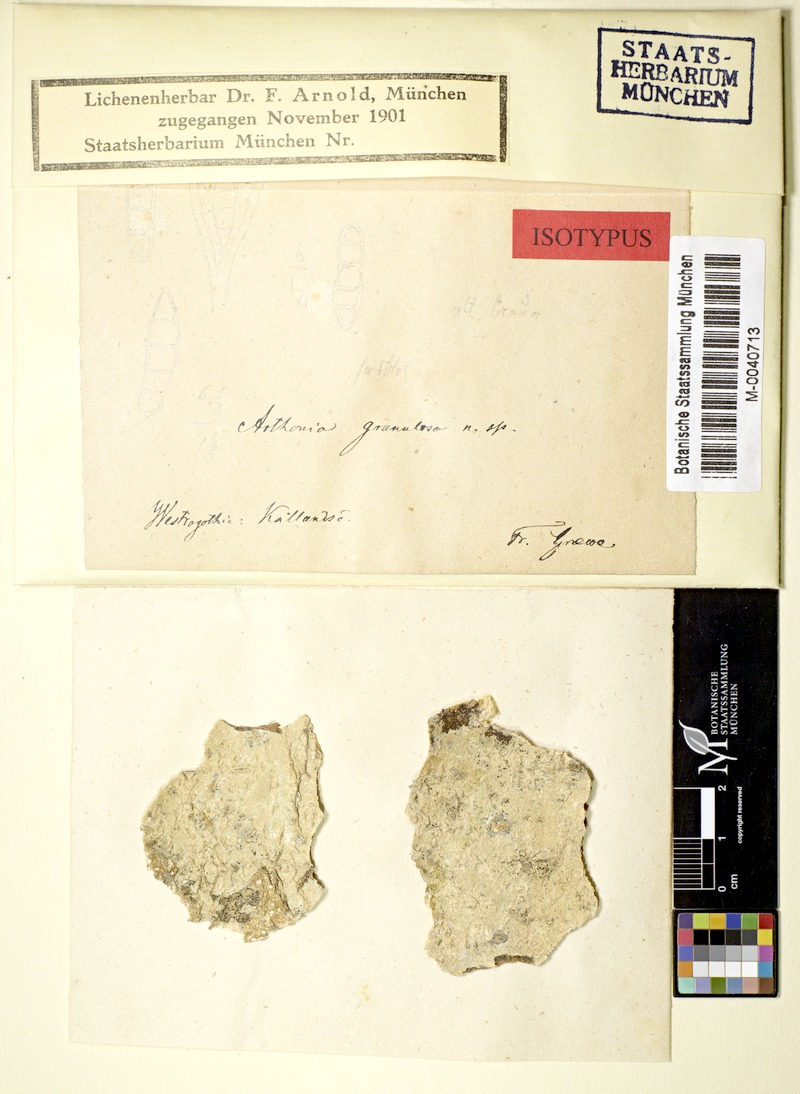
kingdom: Fungi
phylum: Ascomycota
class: Arthoniomycetes
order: Arthoniales
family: Roccellaceae
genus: Phacographa
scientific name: Phacographa zwackhii
